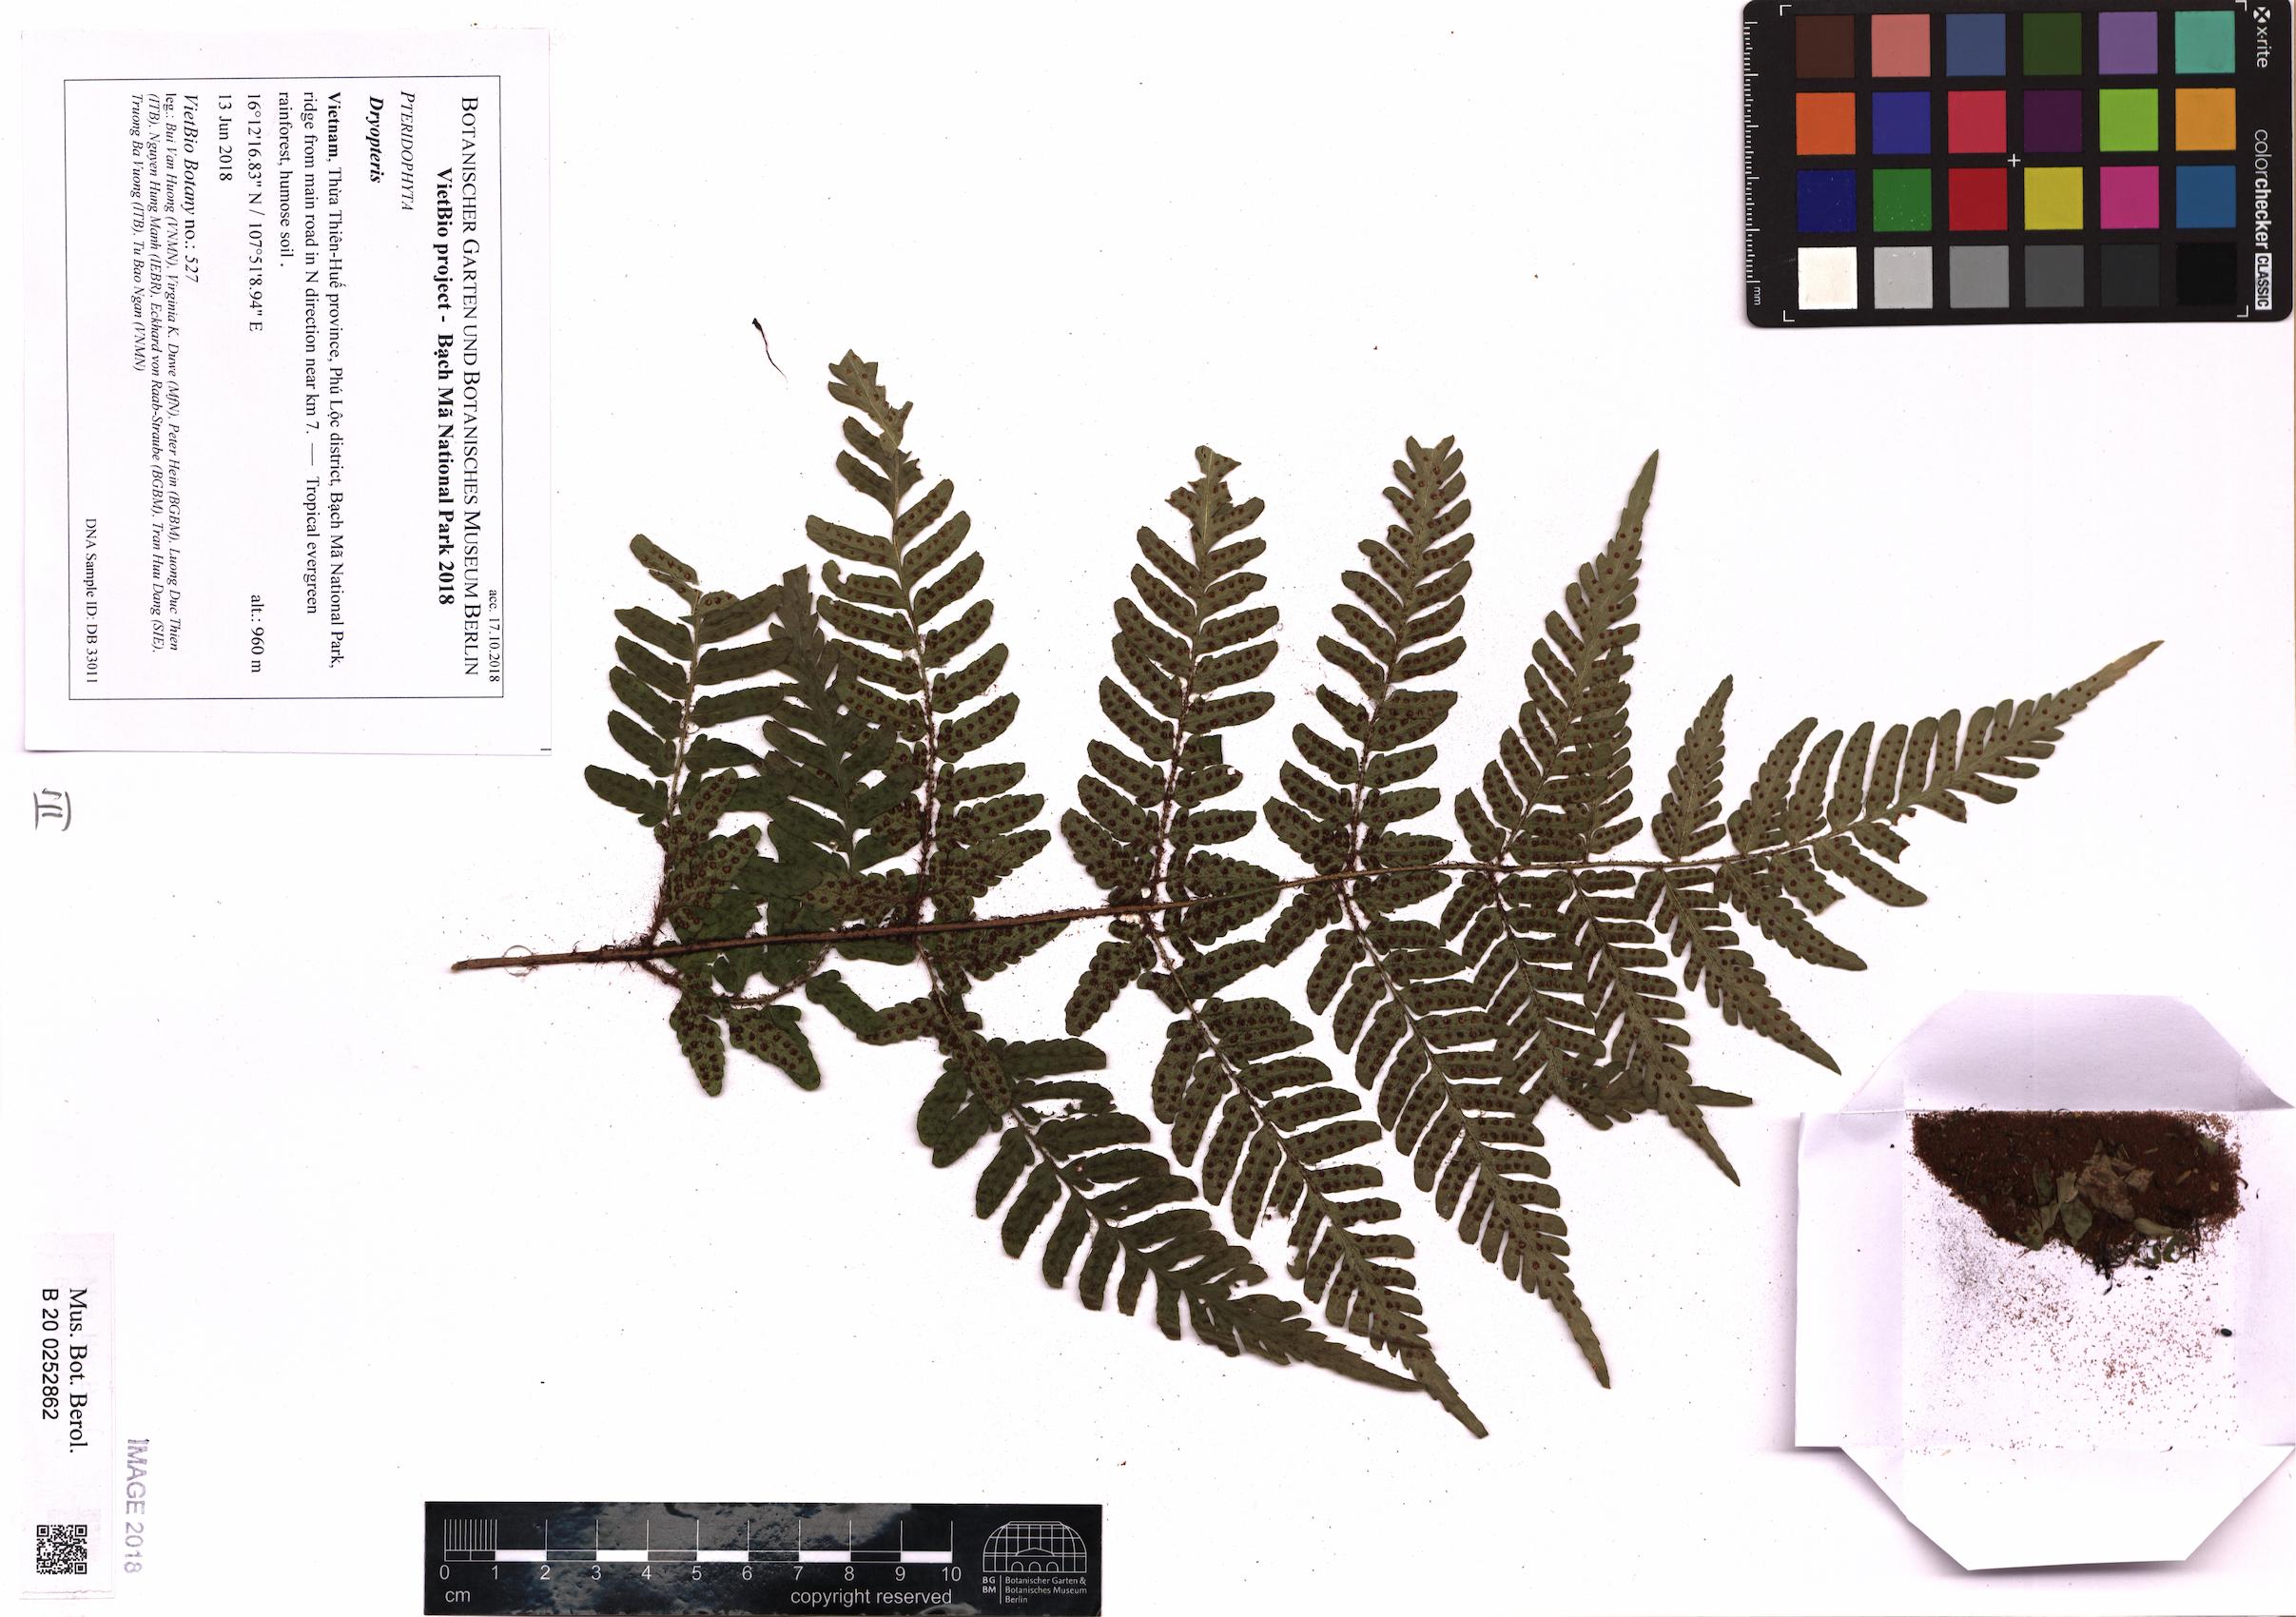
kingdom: Plantae
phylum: Tracheophyta
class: Polypodiopsida
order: Polypodiales
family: Dryopteridaceae
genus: Dryopteris
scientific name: Dryopteris
